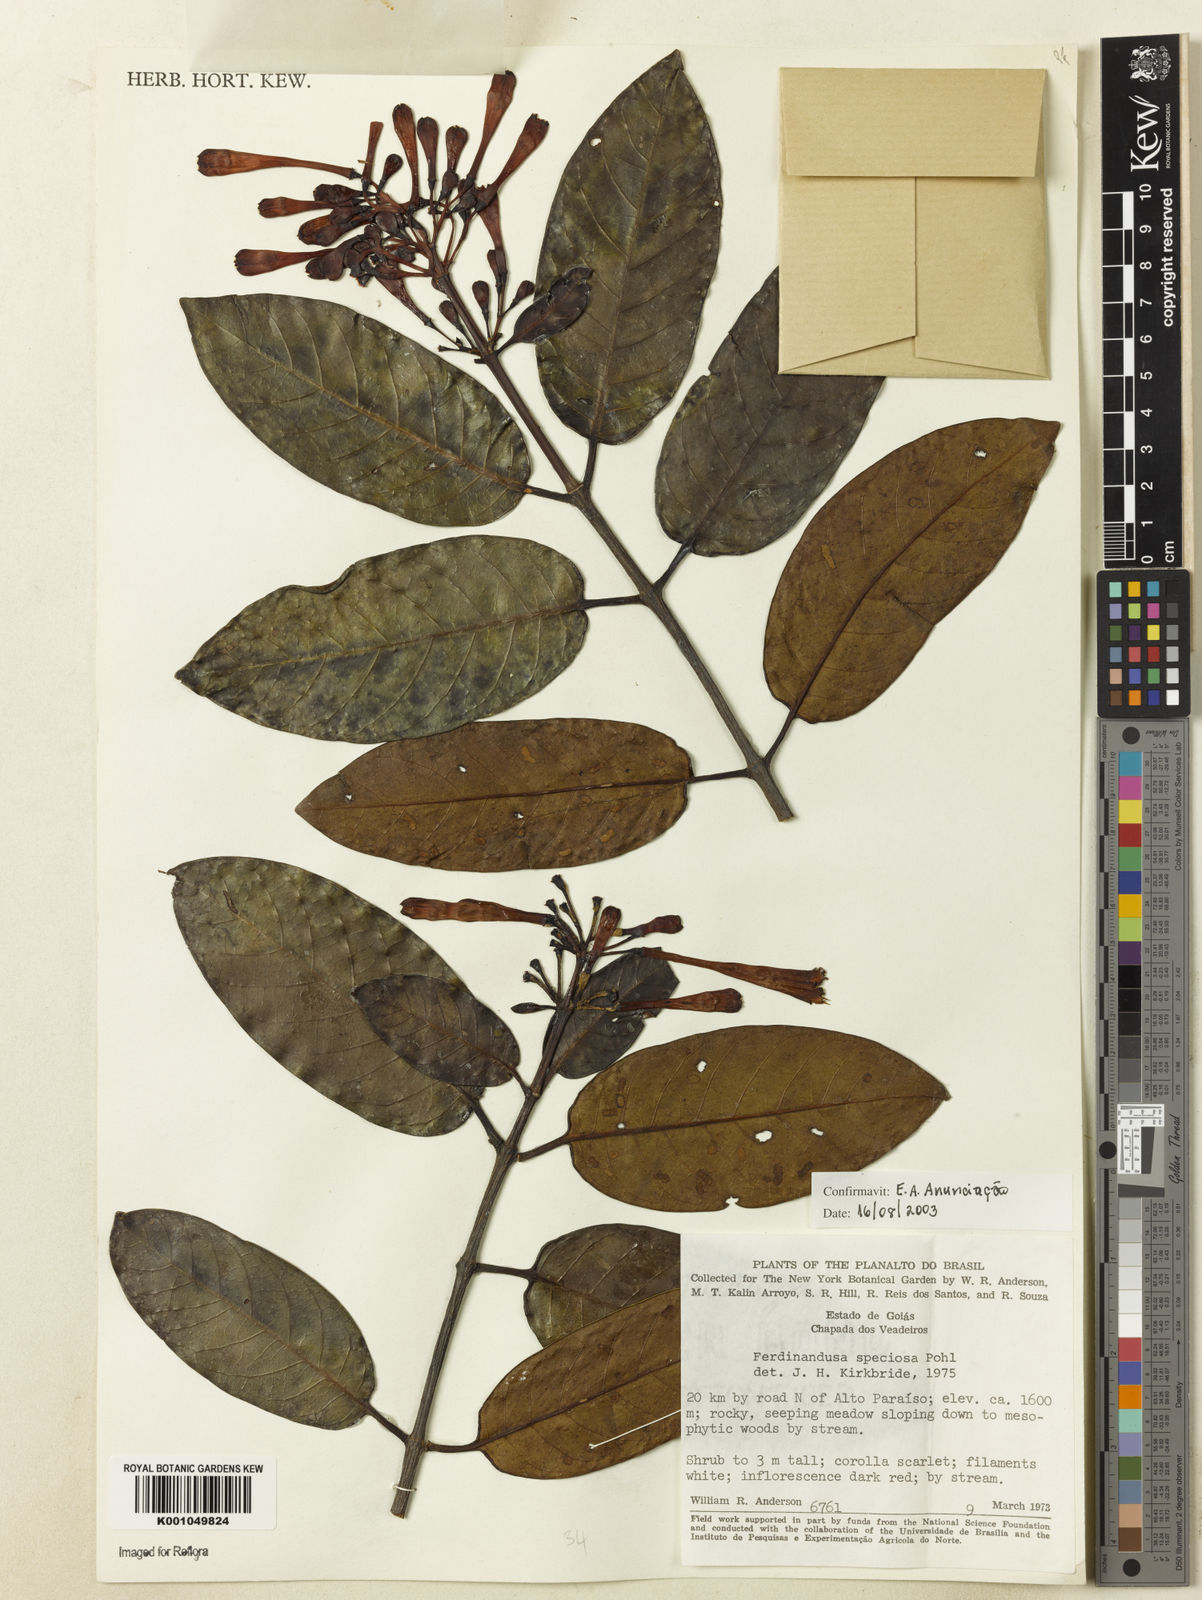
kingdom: Plantae
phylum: Tracheophyta
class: Magnoliopsida
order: Gentianales
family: Rubiaceae
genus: Ferdinandusa
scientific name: Ferdinandusa speciosa
